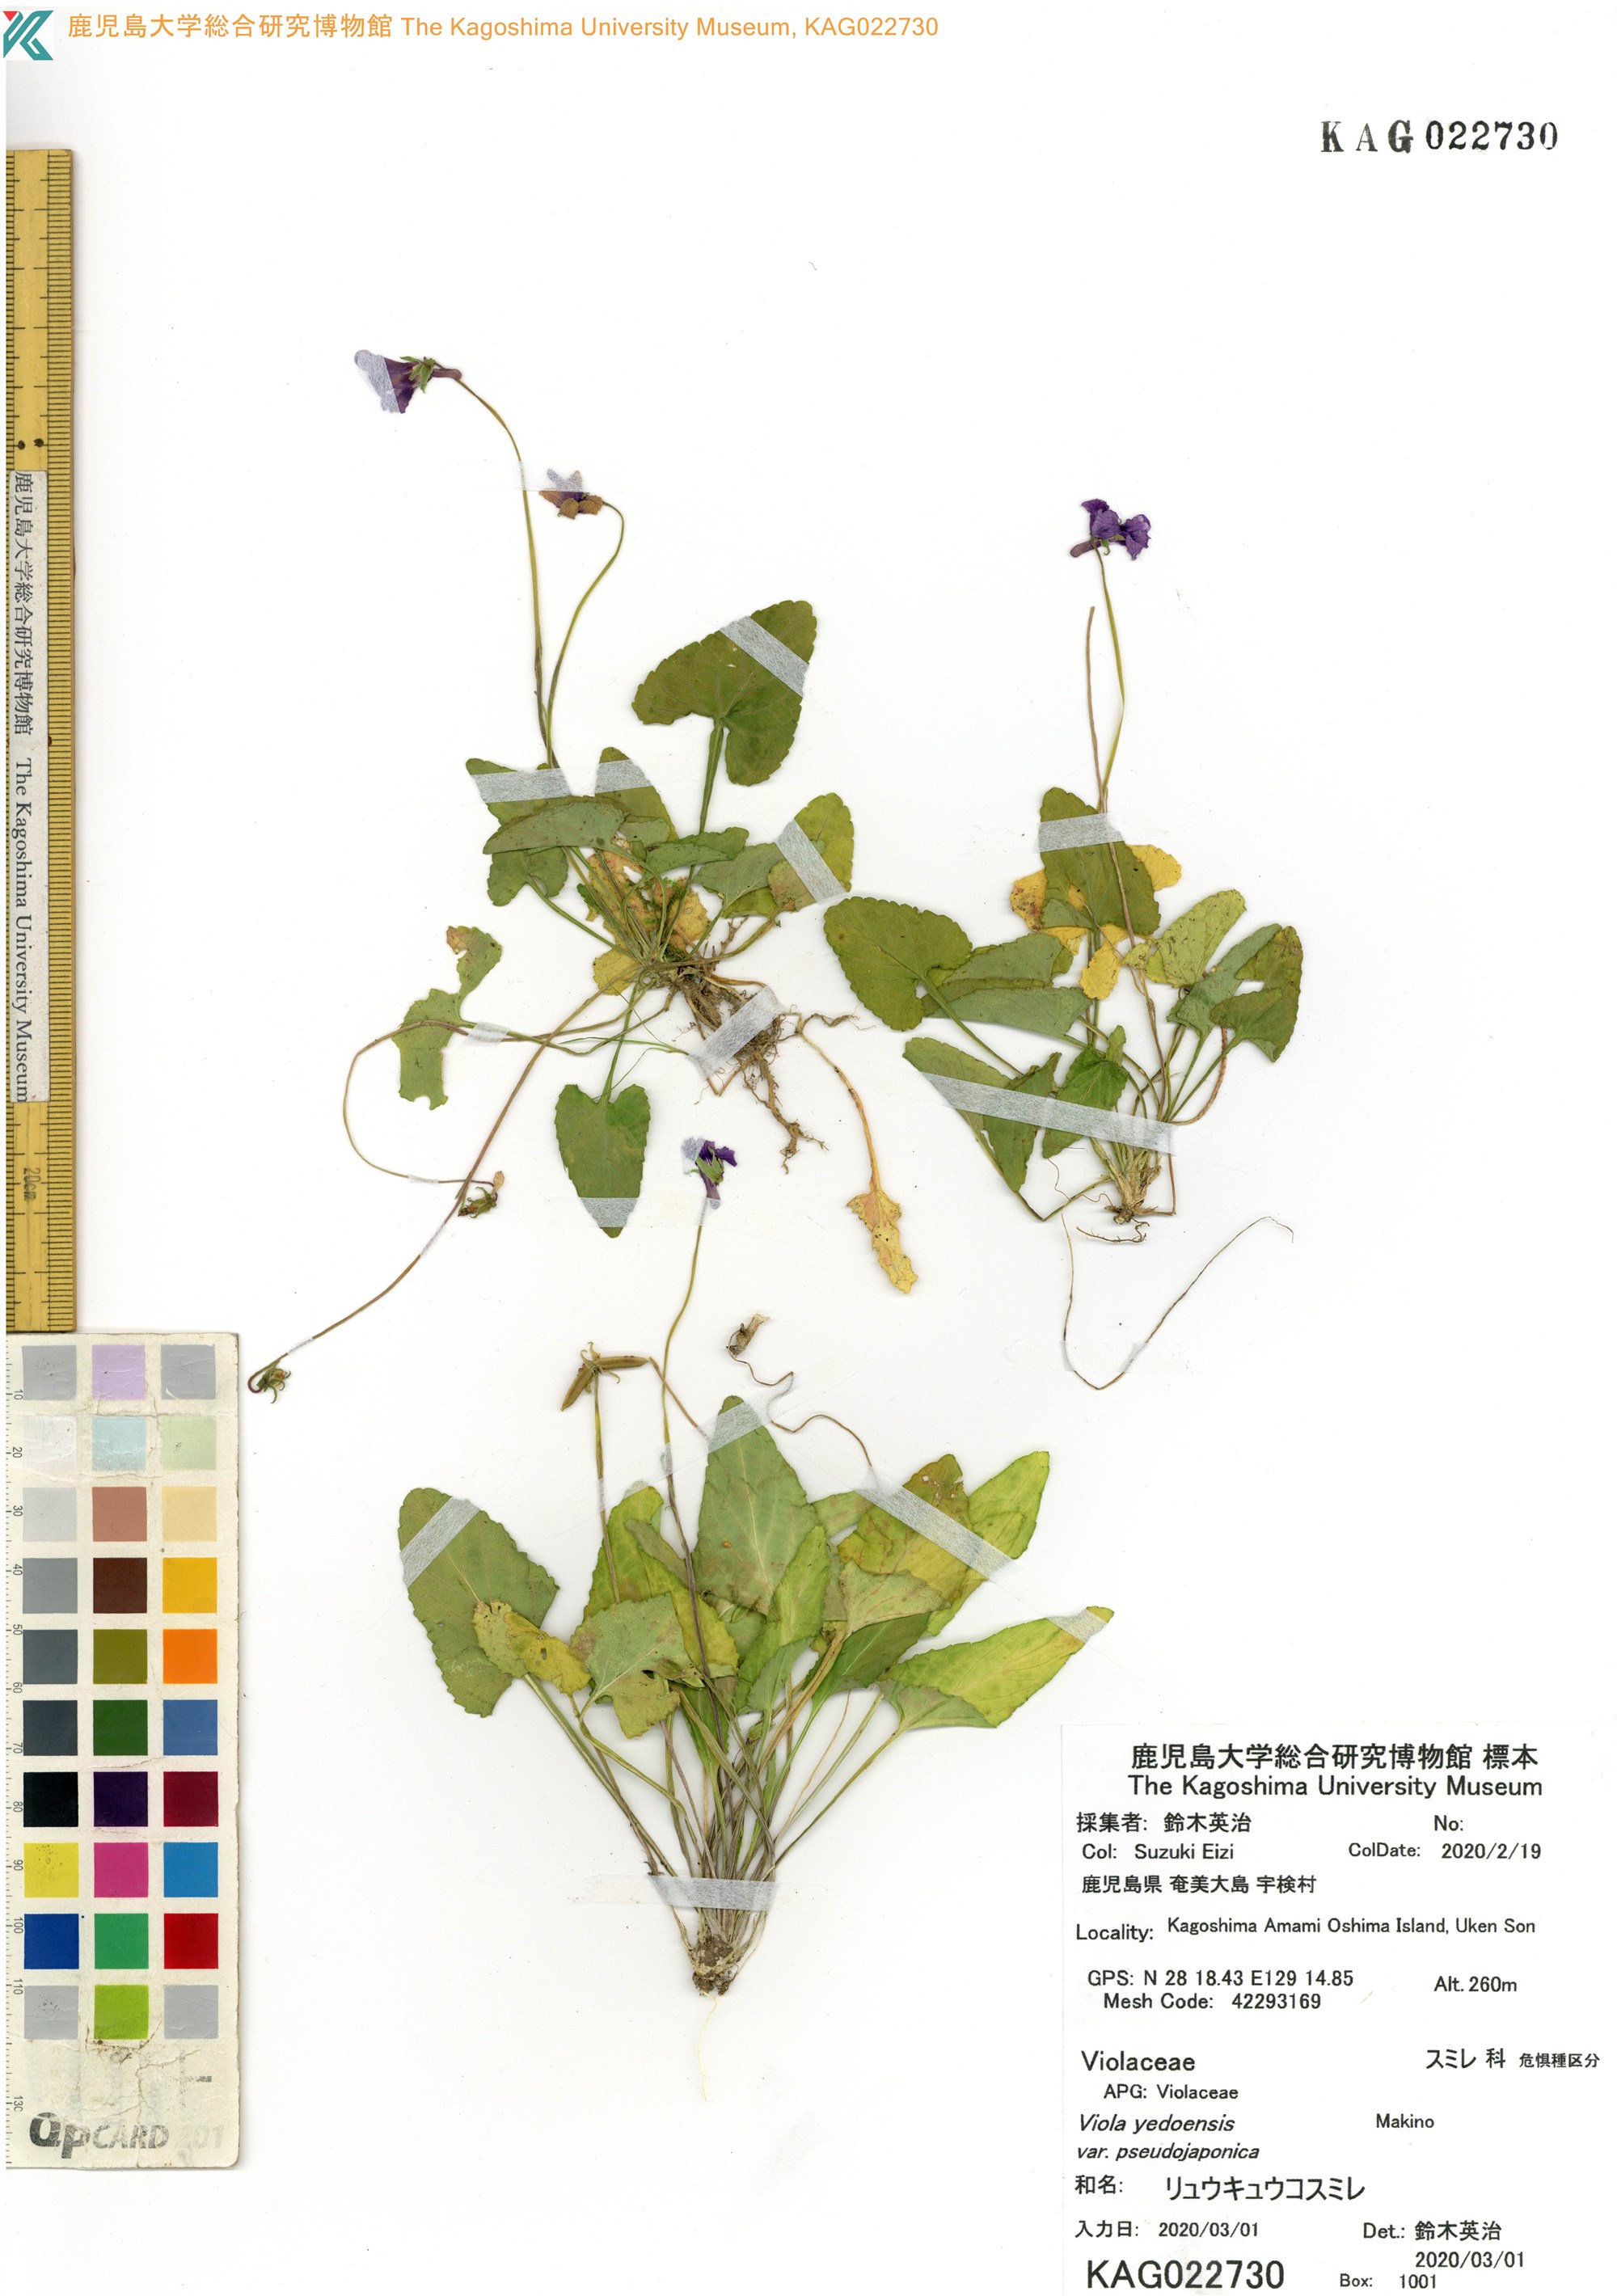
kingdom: Plantae
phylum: Tracheophyta
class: Magnoliopsida
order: Malpighiales
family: Violaceae
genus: Viola
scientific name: Viola philippica
